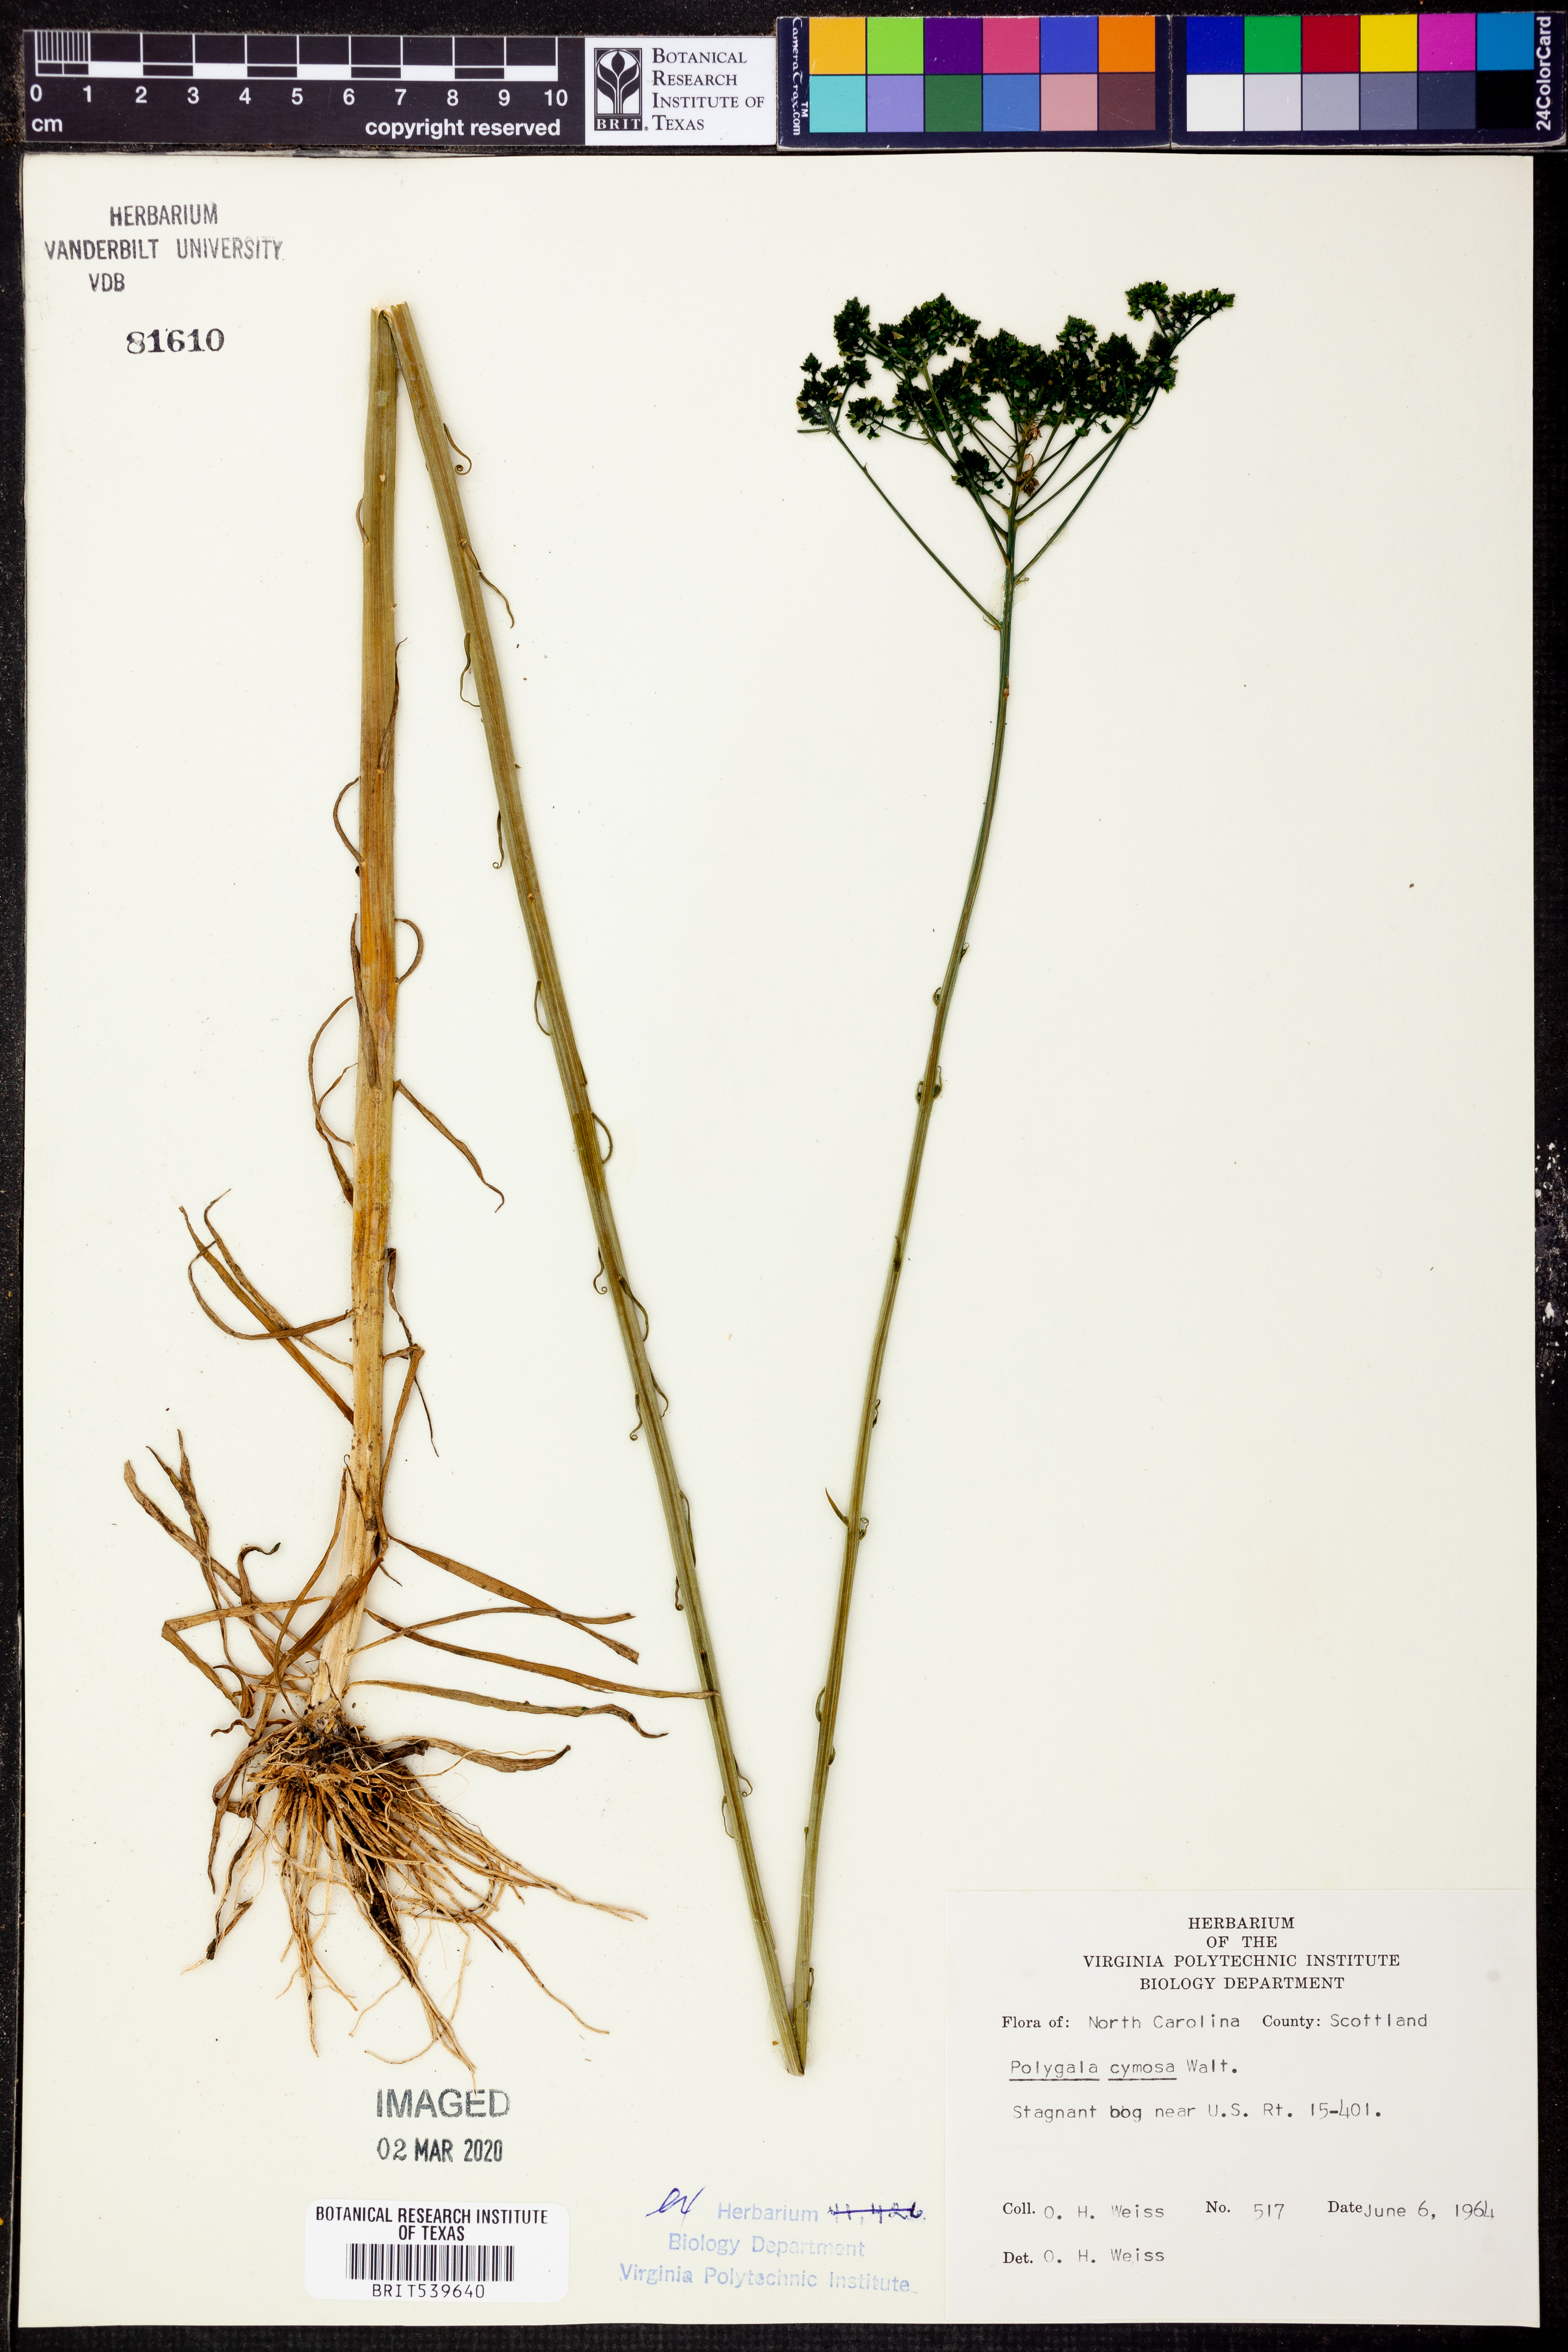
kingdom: Plantae
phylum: Tracheophyta
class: Magnoliopsida
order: Fabales
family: Polygalaceae
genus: Polygala
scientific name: Polygala cymosa
